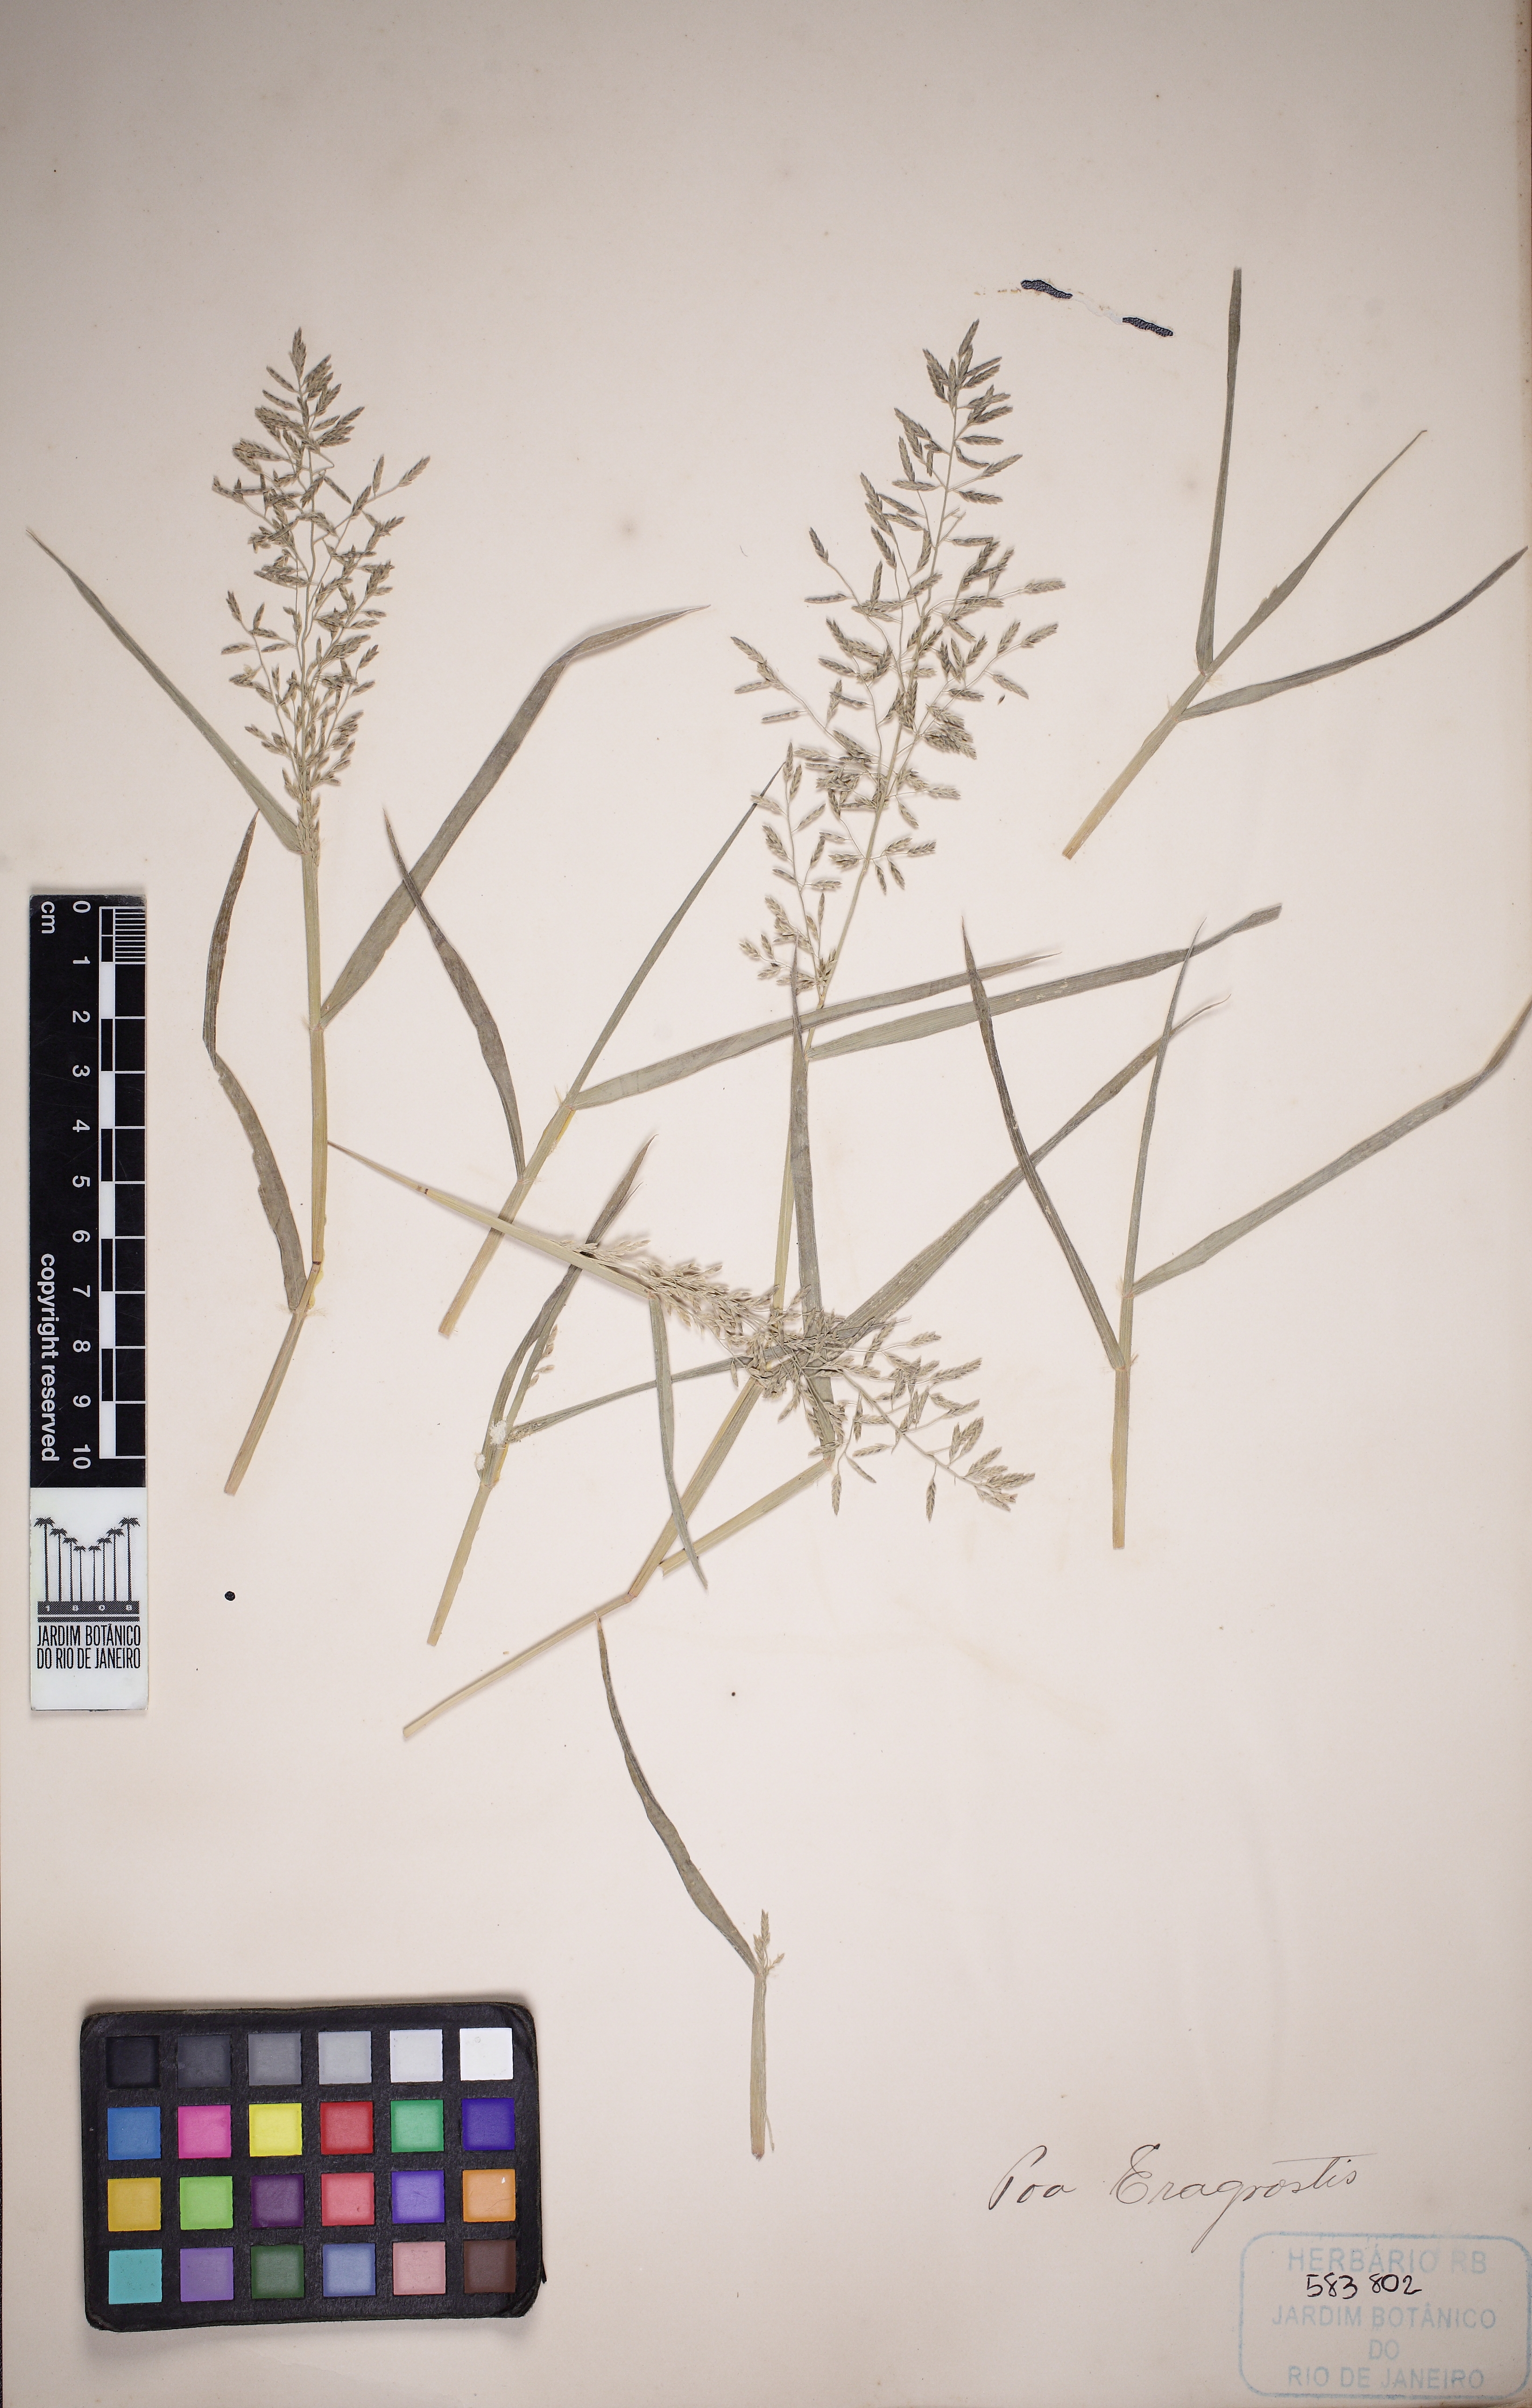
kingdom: Plantae
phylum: Tracheophyta
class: Liliopsida
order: Poales
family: Poaceae
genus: Eragrostis
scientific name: Eragrostis minor
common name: Small love-grass
